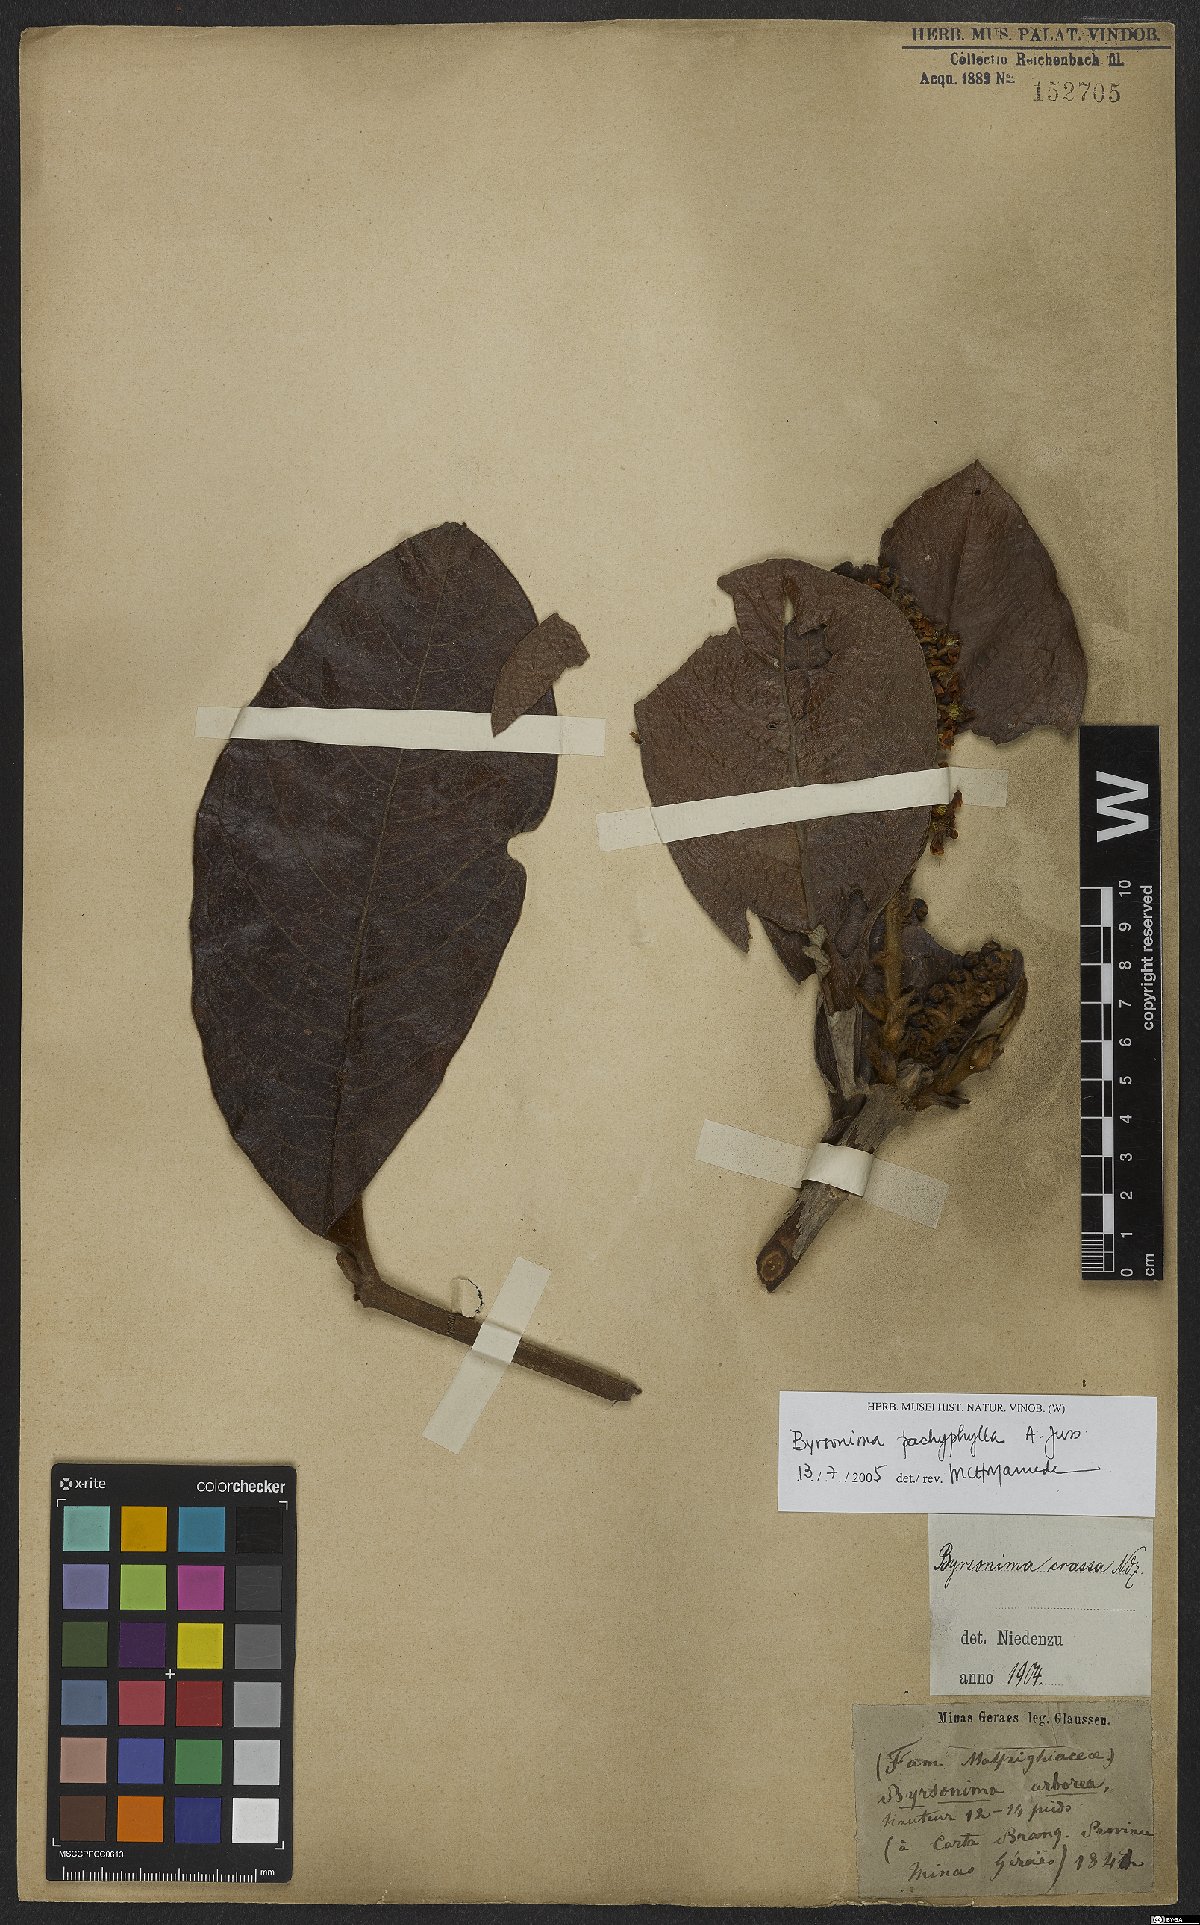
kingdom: Plantae
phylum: Tracheophyta
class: Magnoliopsida
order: Malpighiales
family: Malpighiaceae
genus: Byrsonima
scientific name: Byrsonima pachyphylla
